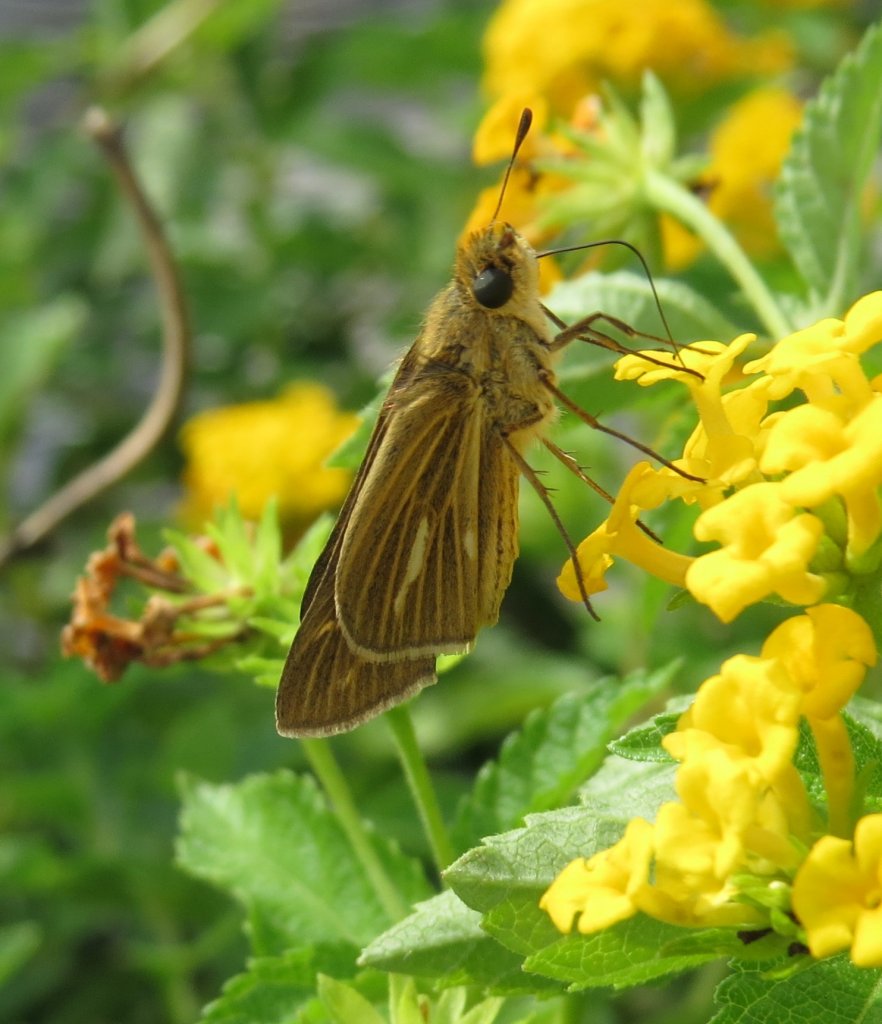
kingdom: Animalia
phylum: Arthropoda
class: Insecta
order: Lepidoptera
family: Hesperiidae
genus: Panoquina
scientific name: Panoquina panoquin
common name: Salt Marsh Skipper
